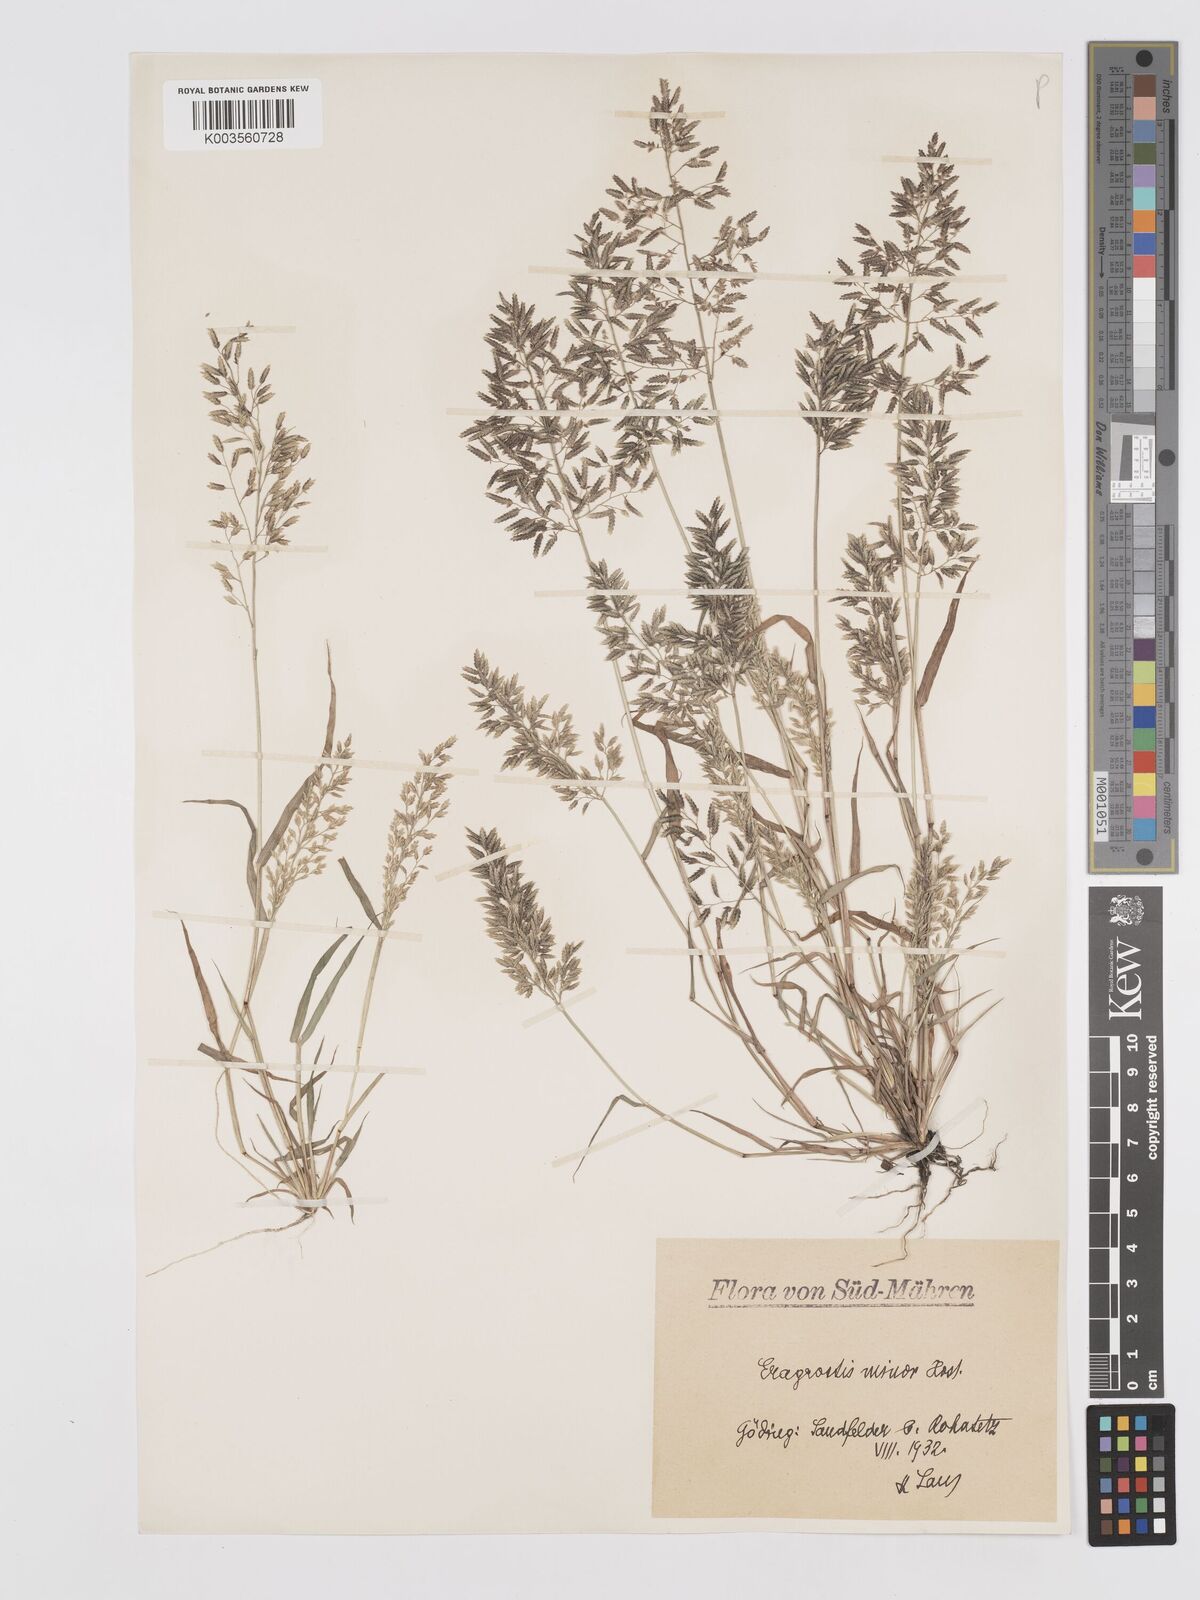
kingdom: Plantae
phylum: Tracheophyta
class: Liliopsida
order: Poales
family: Poaceae
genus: Eragrostis
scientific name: Eragrostis minor
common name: Small love-grass
